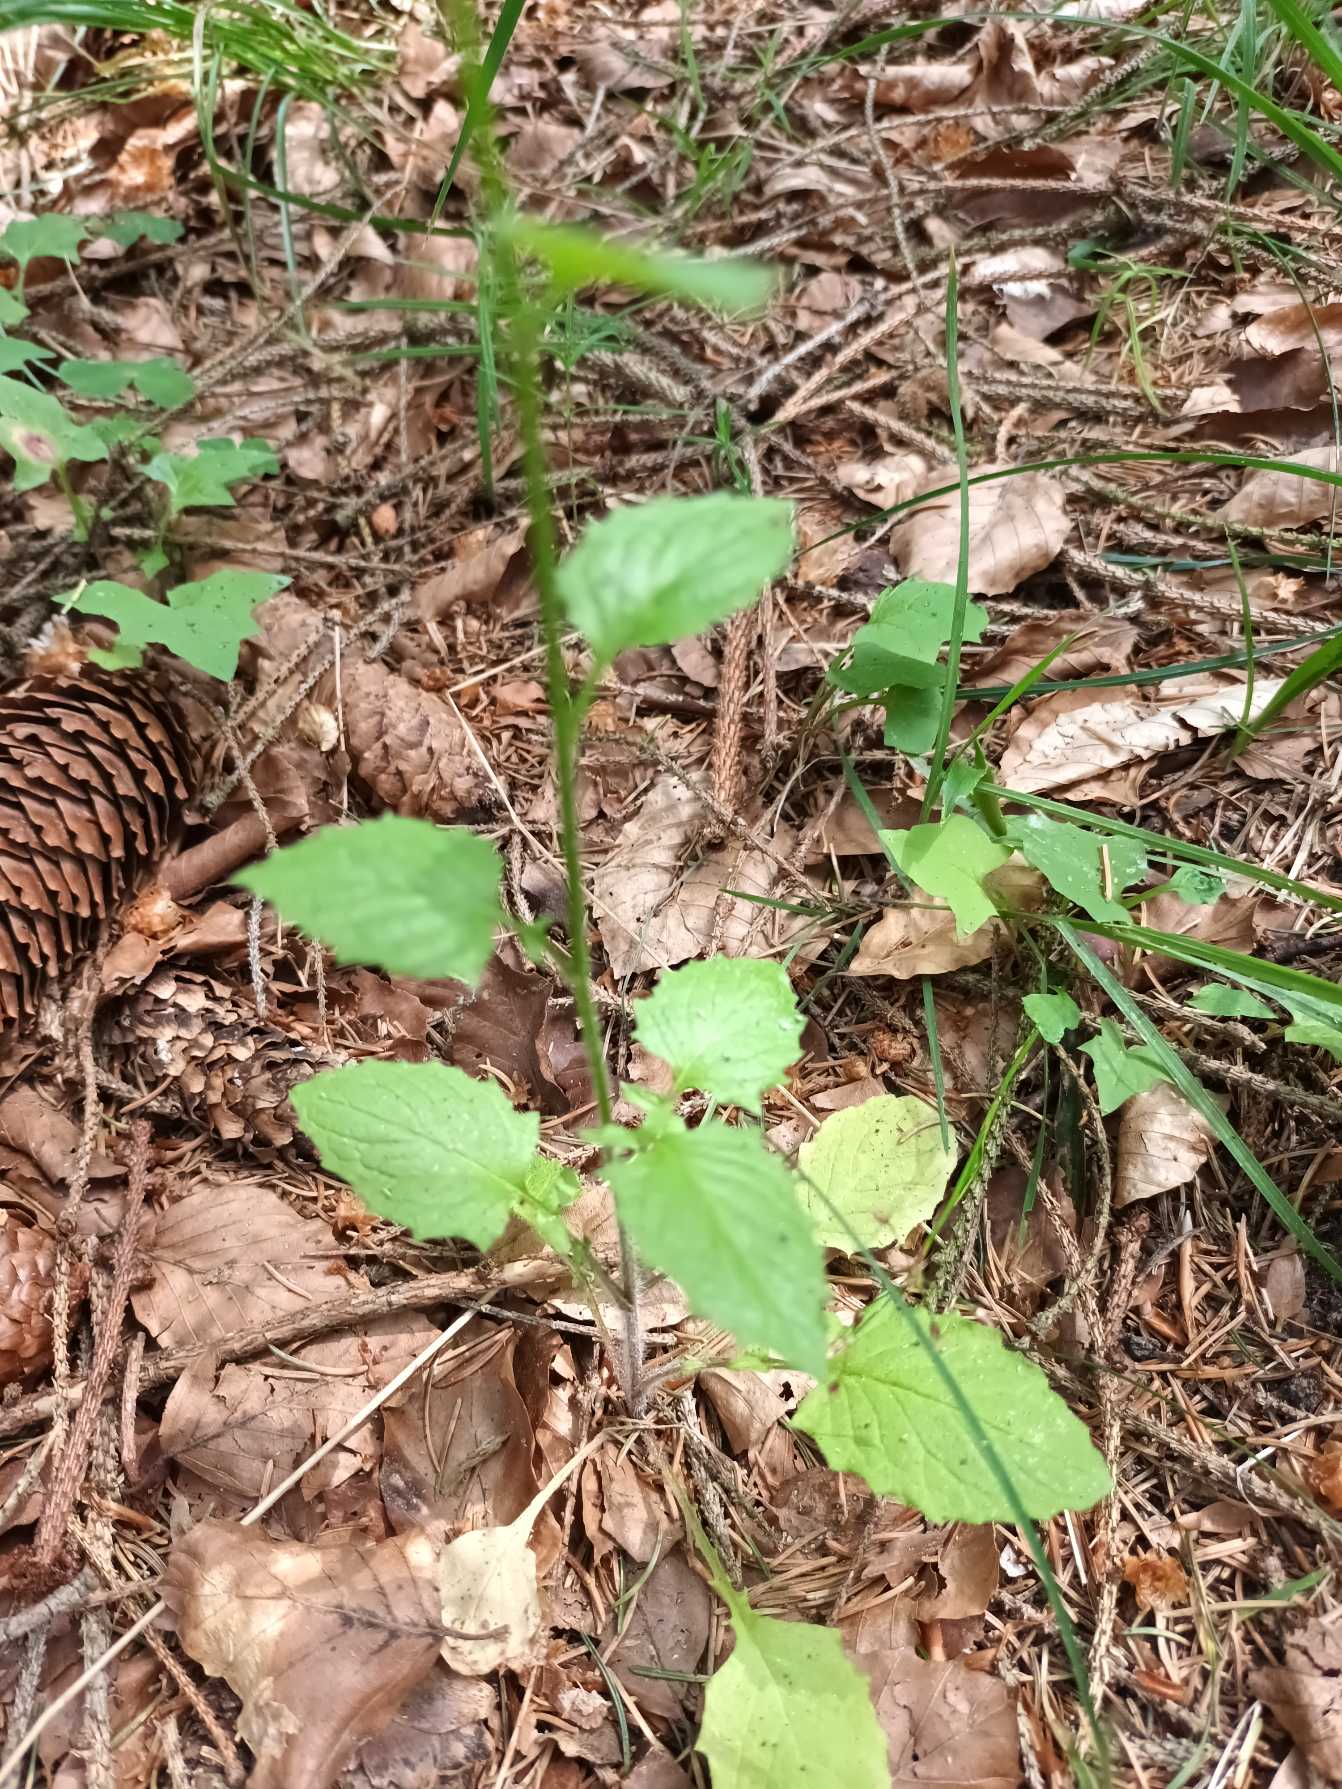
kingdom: Plantae
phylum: Tracheophyta
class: Magnoliopsida
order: Asterales
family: Asteraceae
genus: Lapsana
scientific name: Lapsana communis
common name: Haremad
